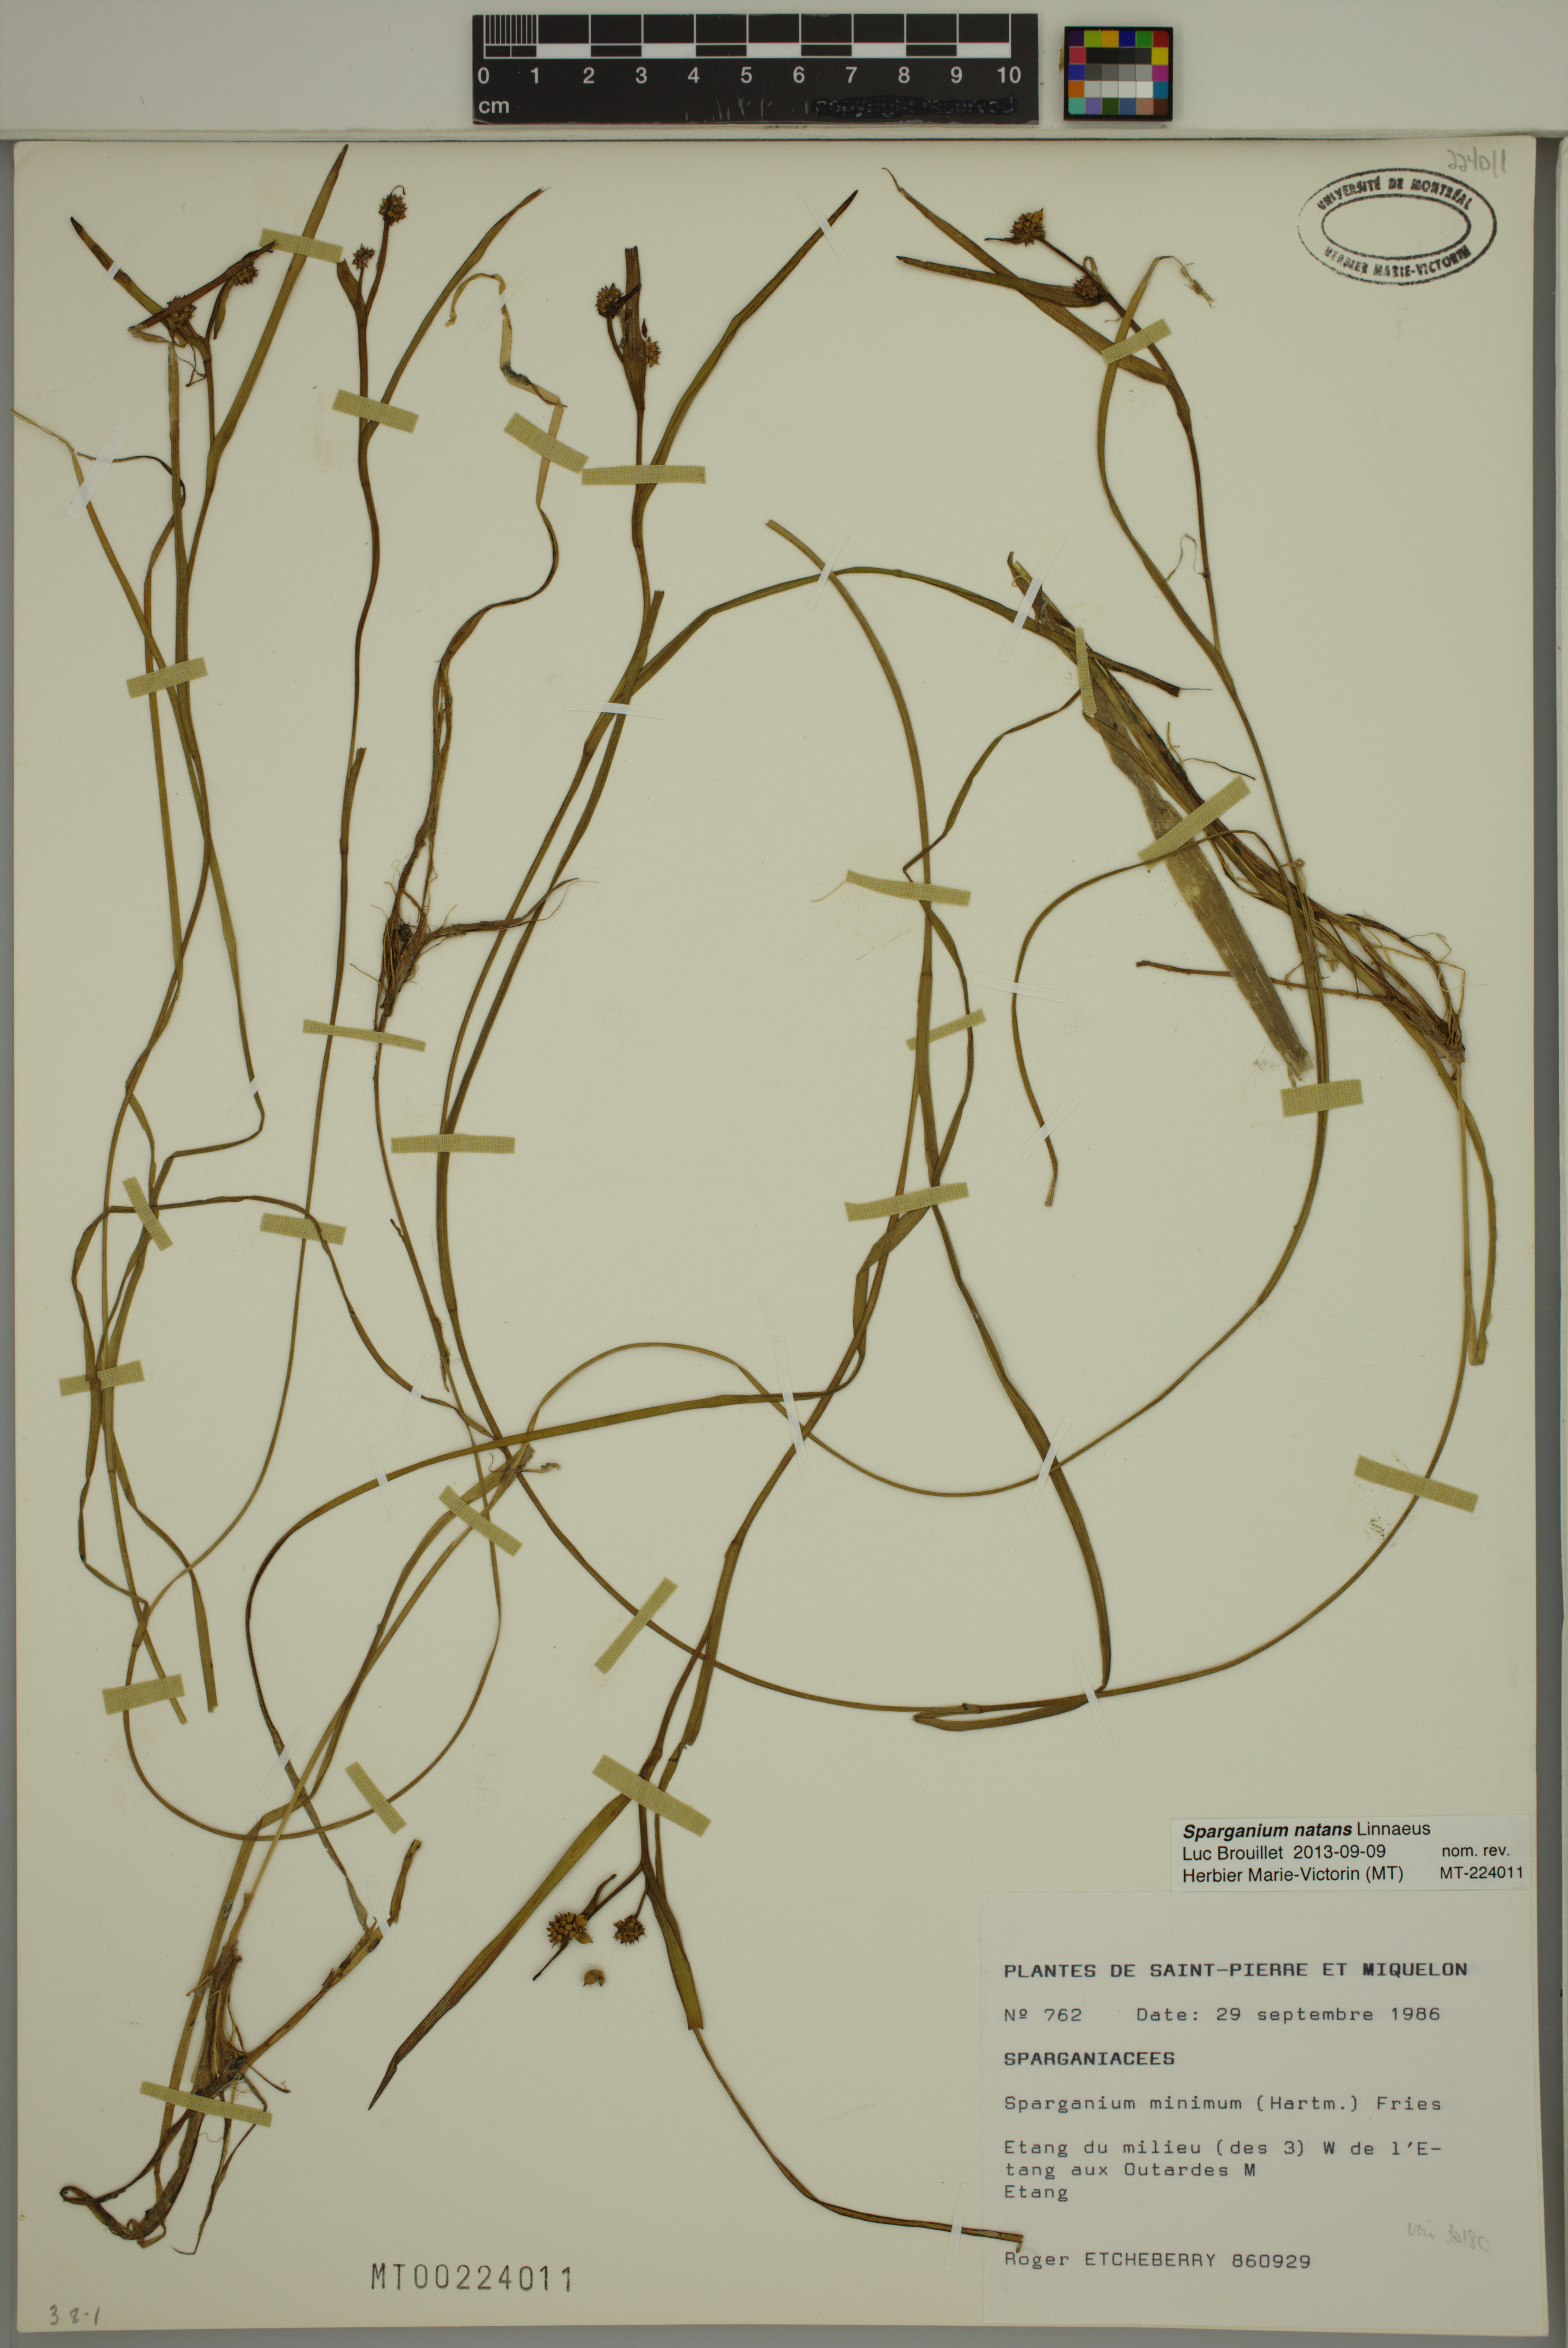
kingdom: Plantae
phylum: Tracheophyta
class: Liliopsida
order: Poales
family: Typhaceae
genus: Sparganium
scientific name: Sparganium natans
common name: Least bur-reed
